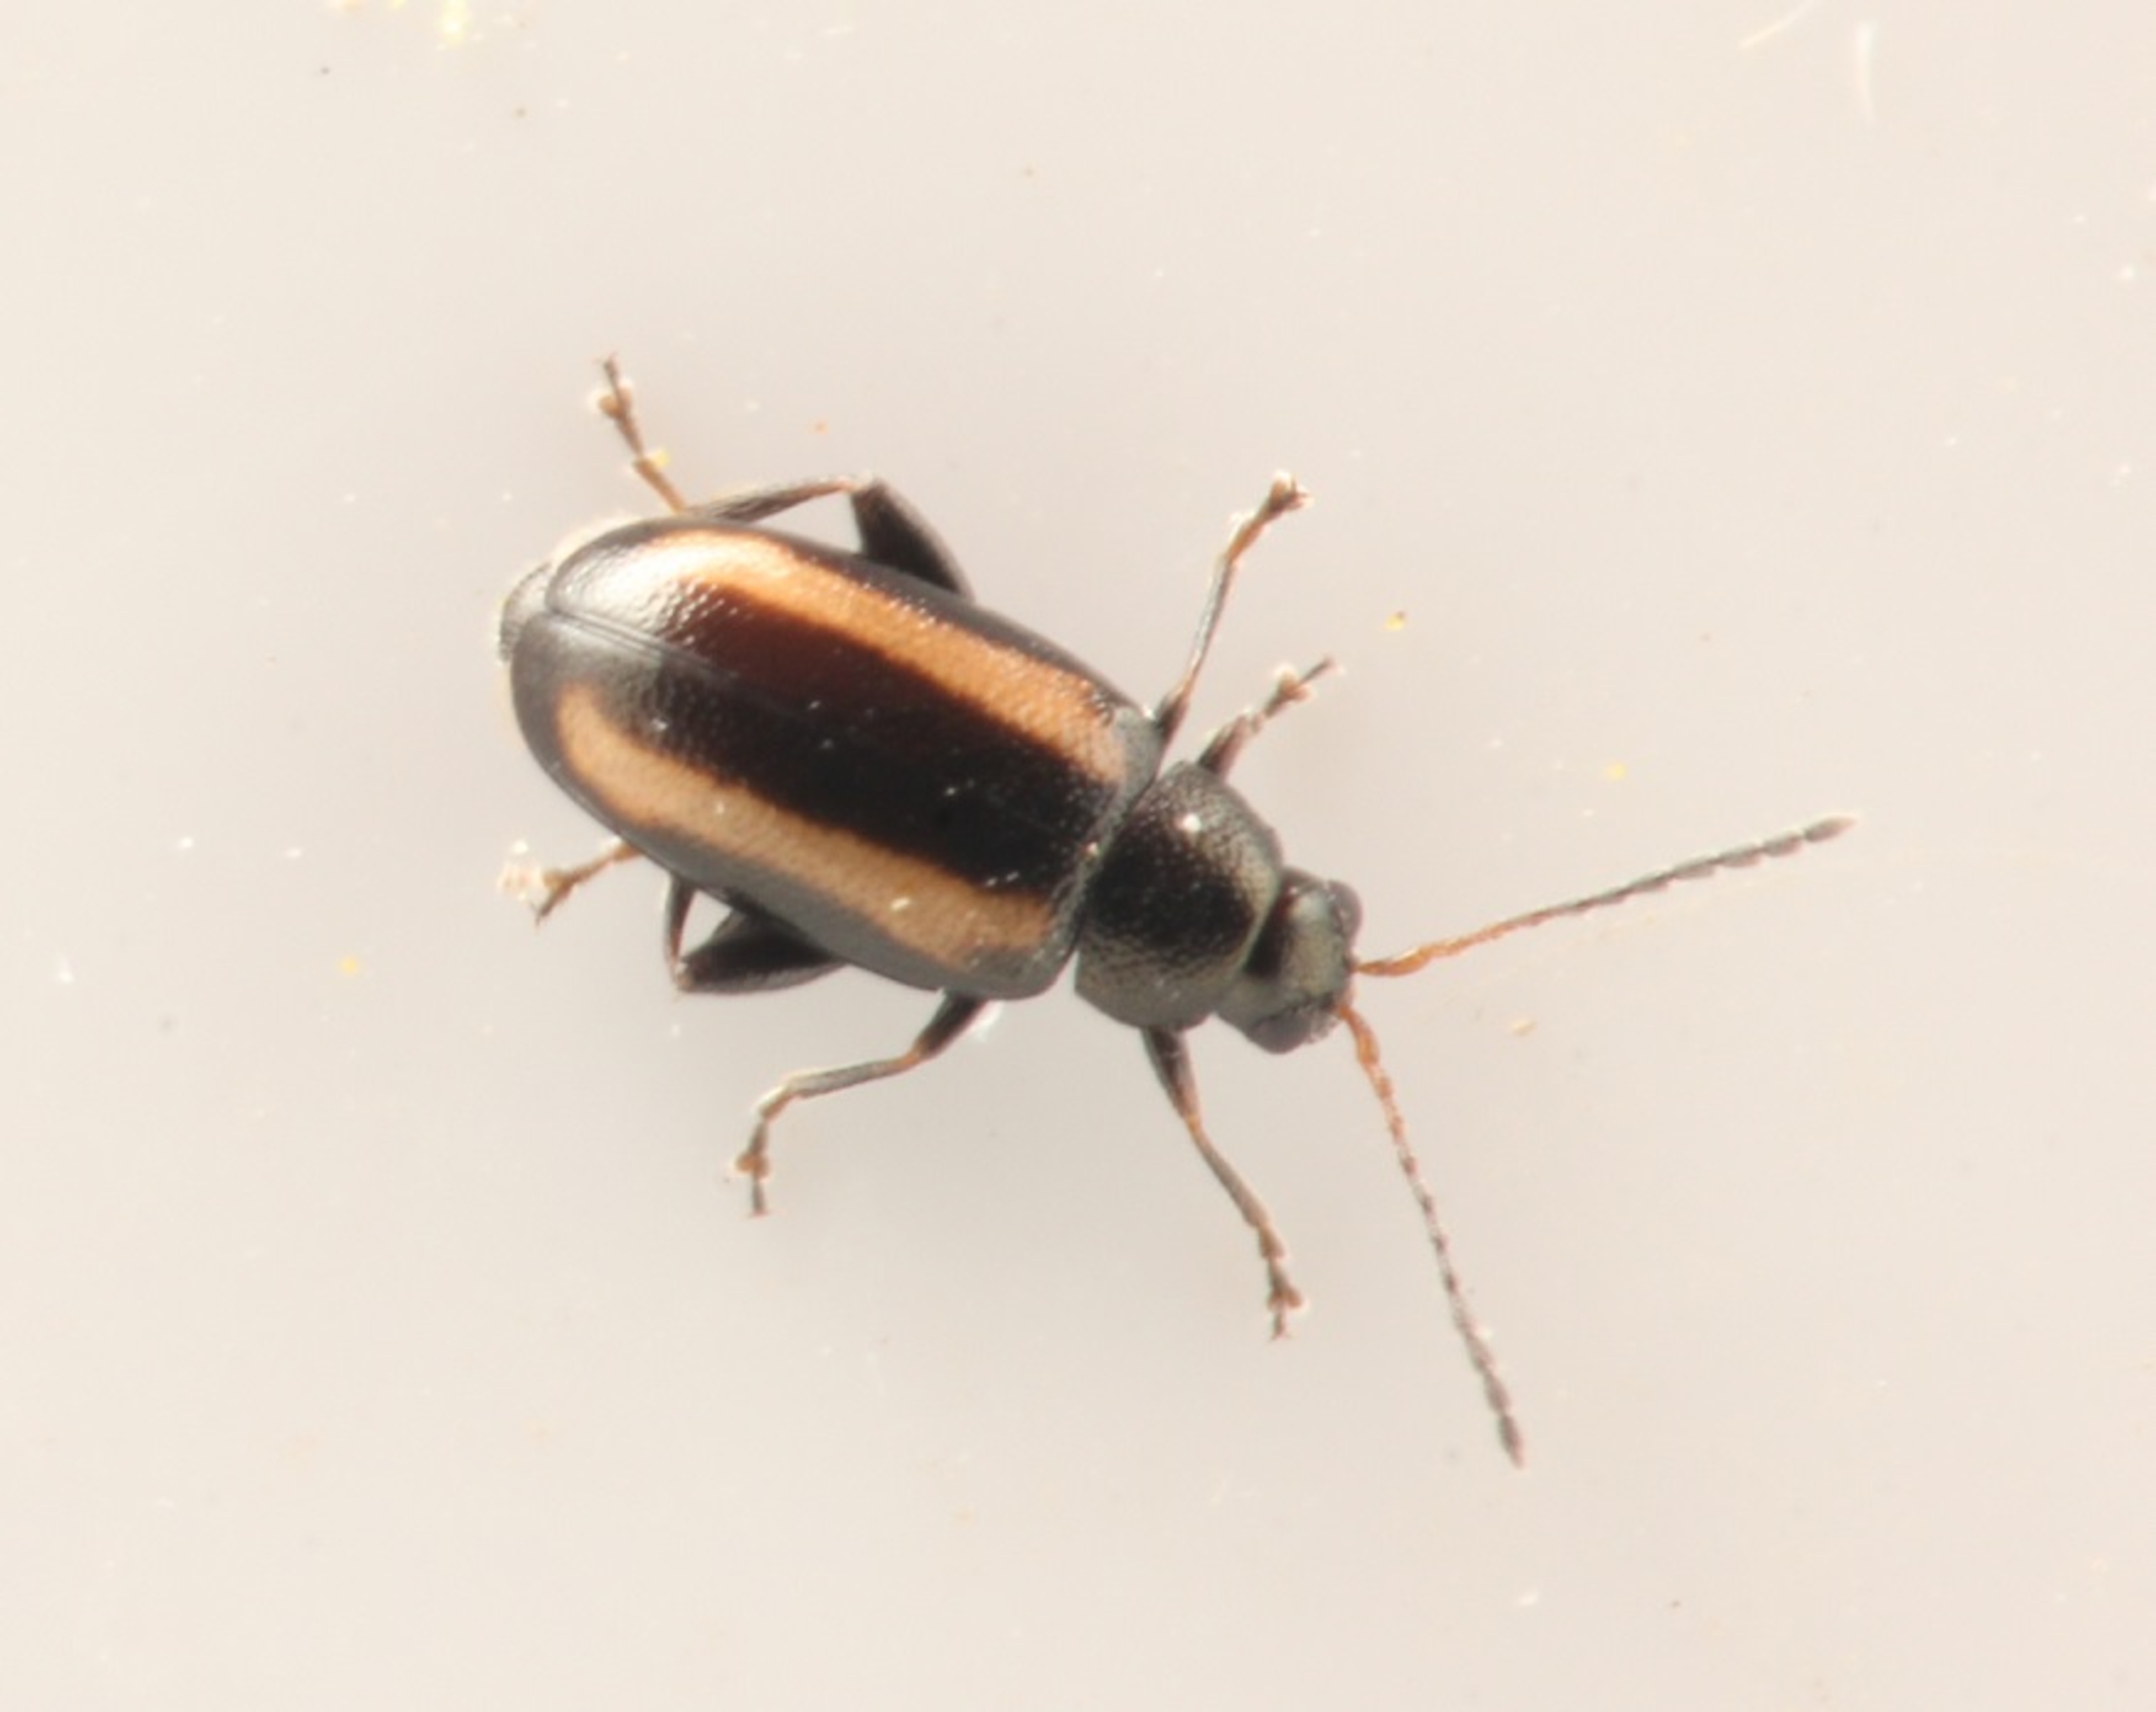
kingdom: Animalia
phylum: Arthropoda
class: Insecta
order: Coleoptera
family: Chrysomelidae
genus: Phyllotreta
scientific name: Phyllotreta vittula
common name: Gulstribet kornjordloppe
